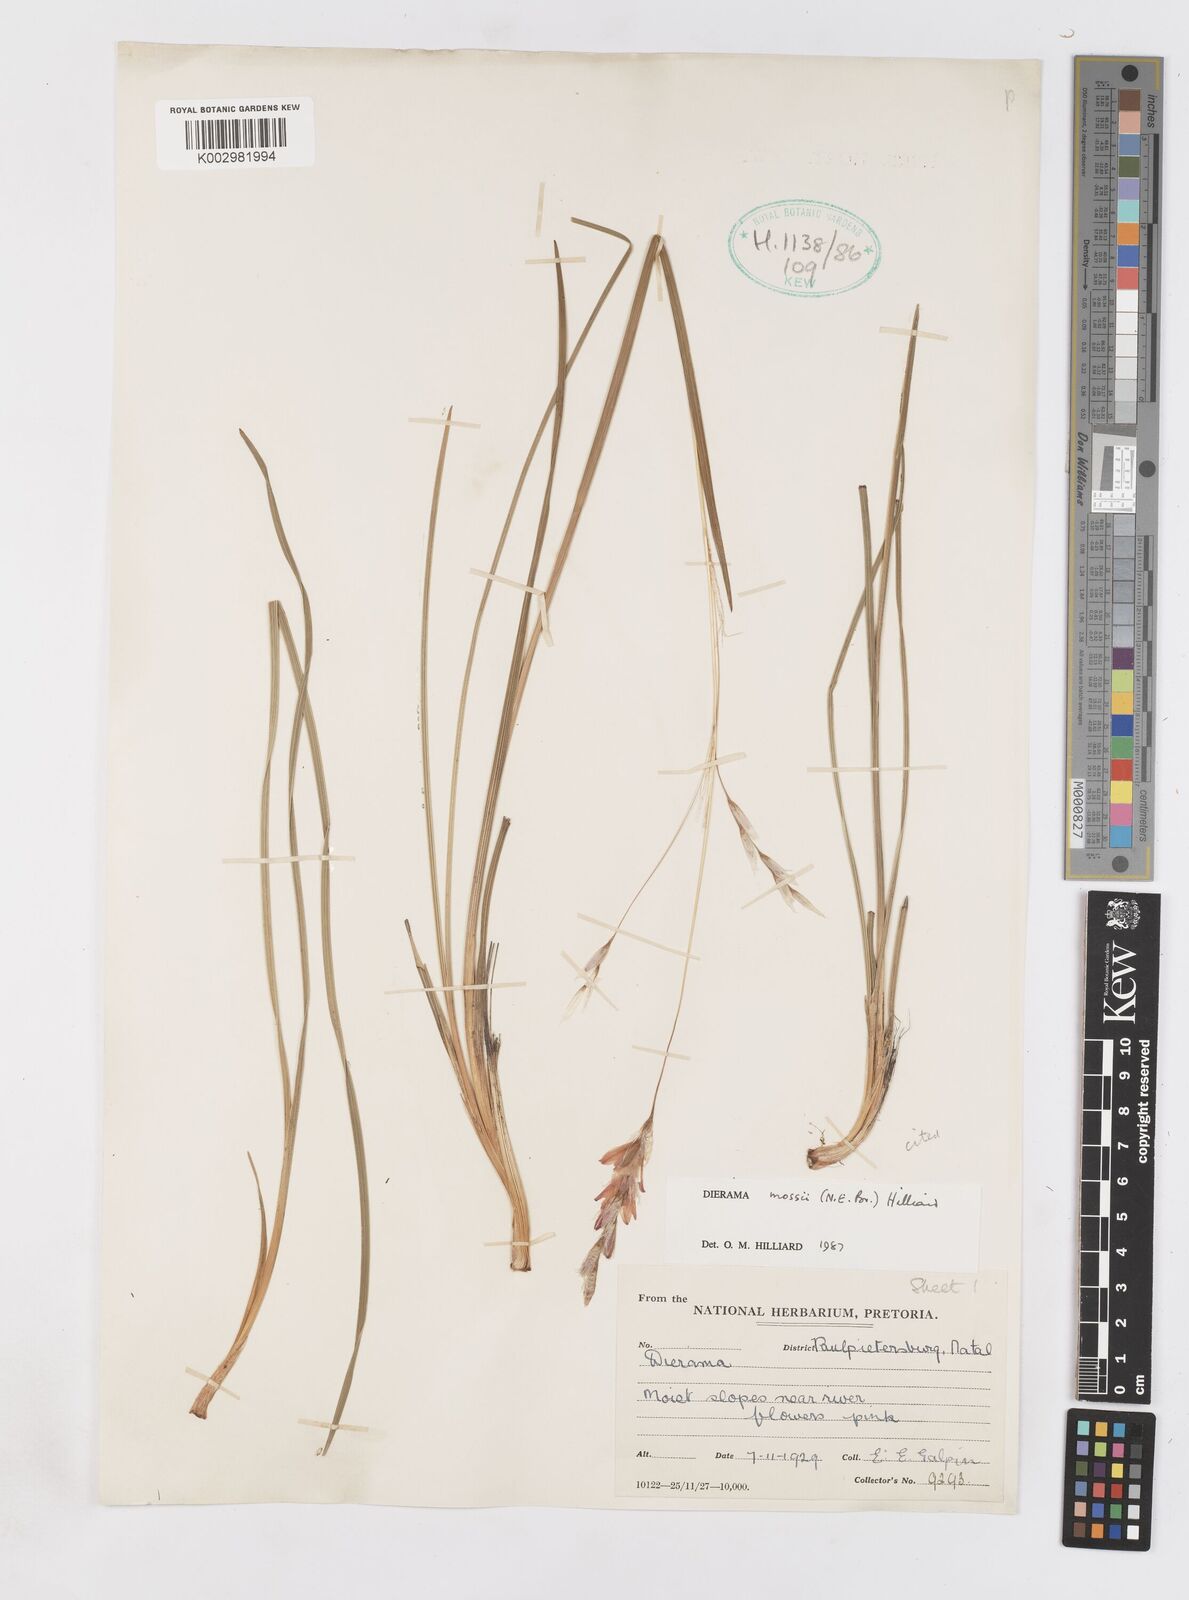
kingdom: Plantae
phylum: Tracheophyta
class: Liliopsida
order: Asparagales
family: Iridaceae
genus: Dierama
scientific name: Dierama mossii
